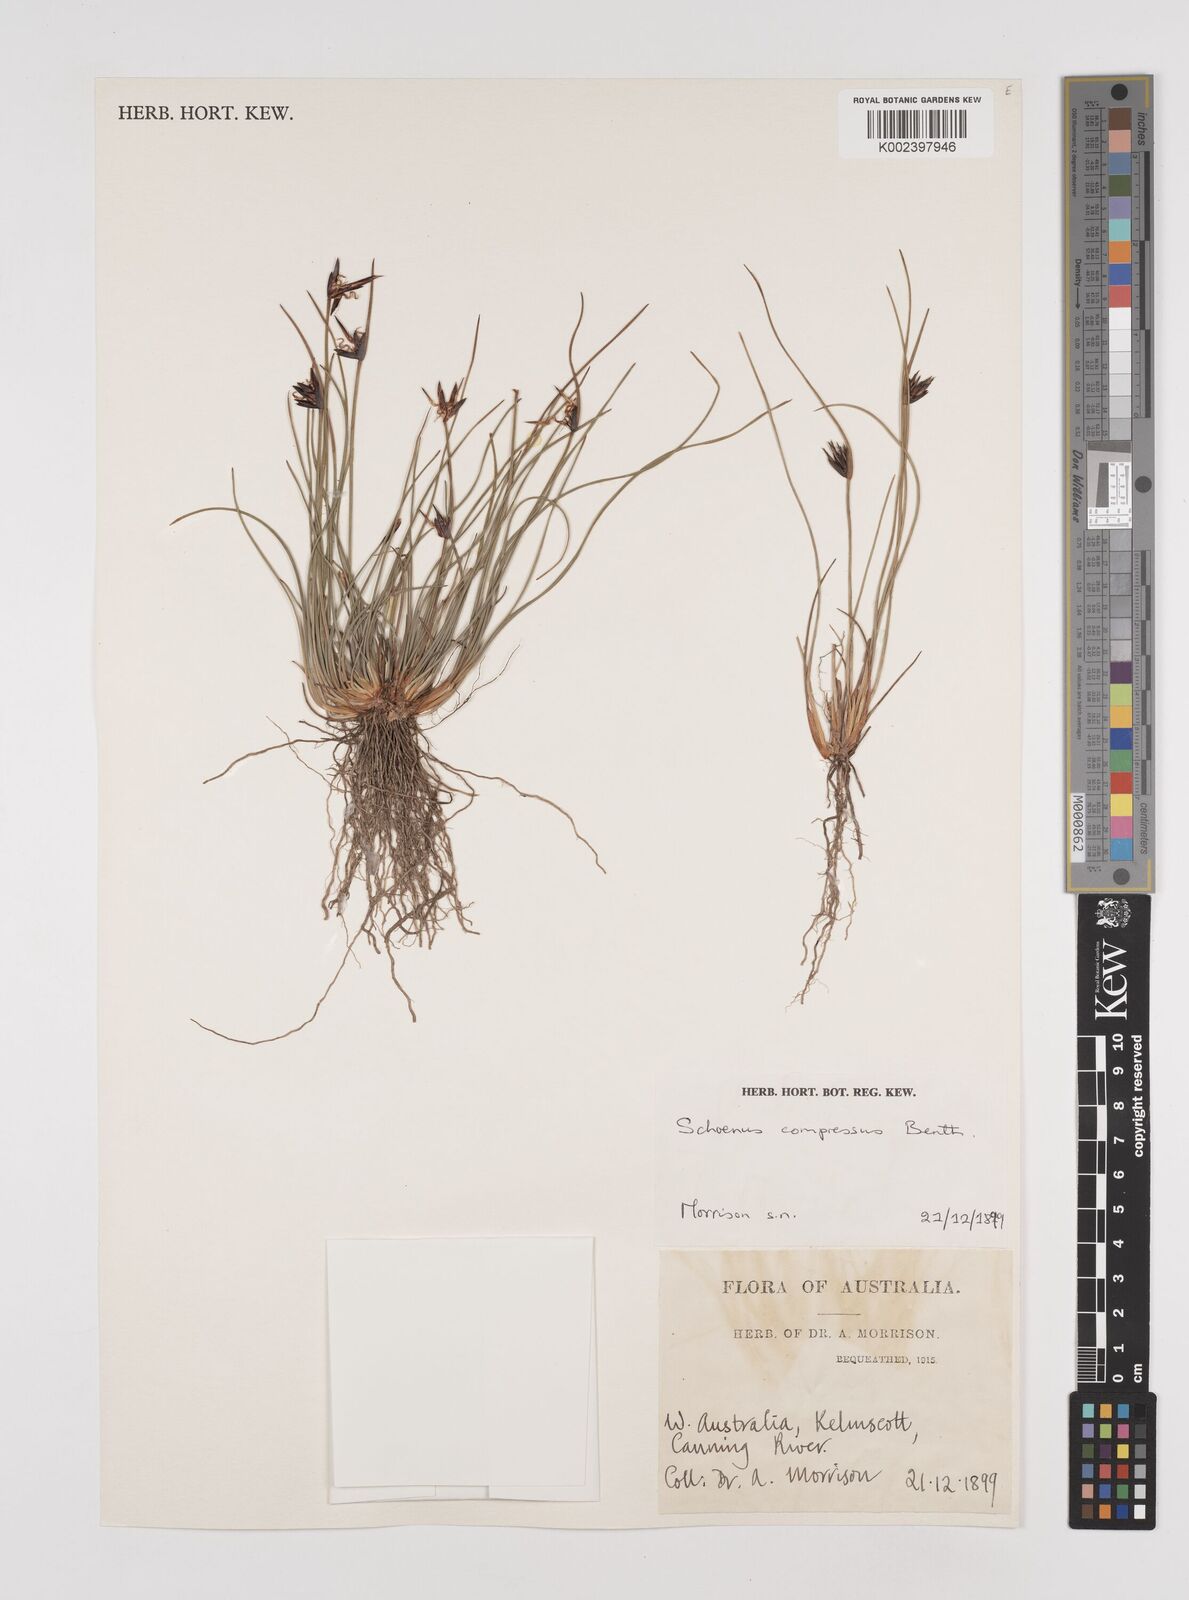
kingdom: Plantae
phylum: Tracheophyta
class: Liliopsida
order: Poales
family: Cyperaceae
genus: Schoenus
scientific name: Schoenus benthamii
